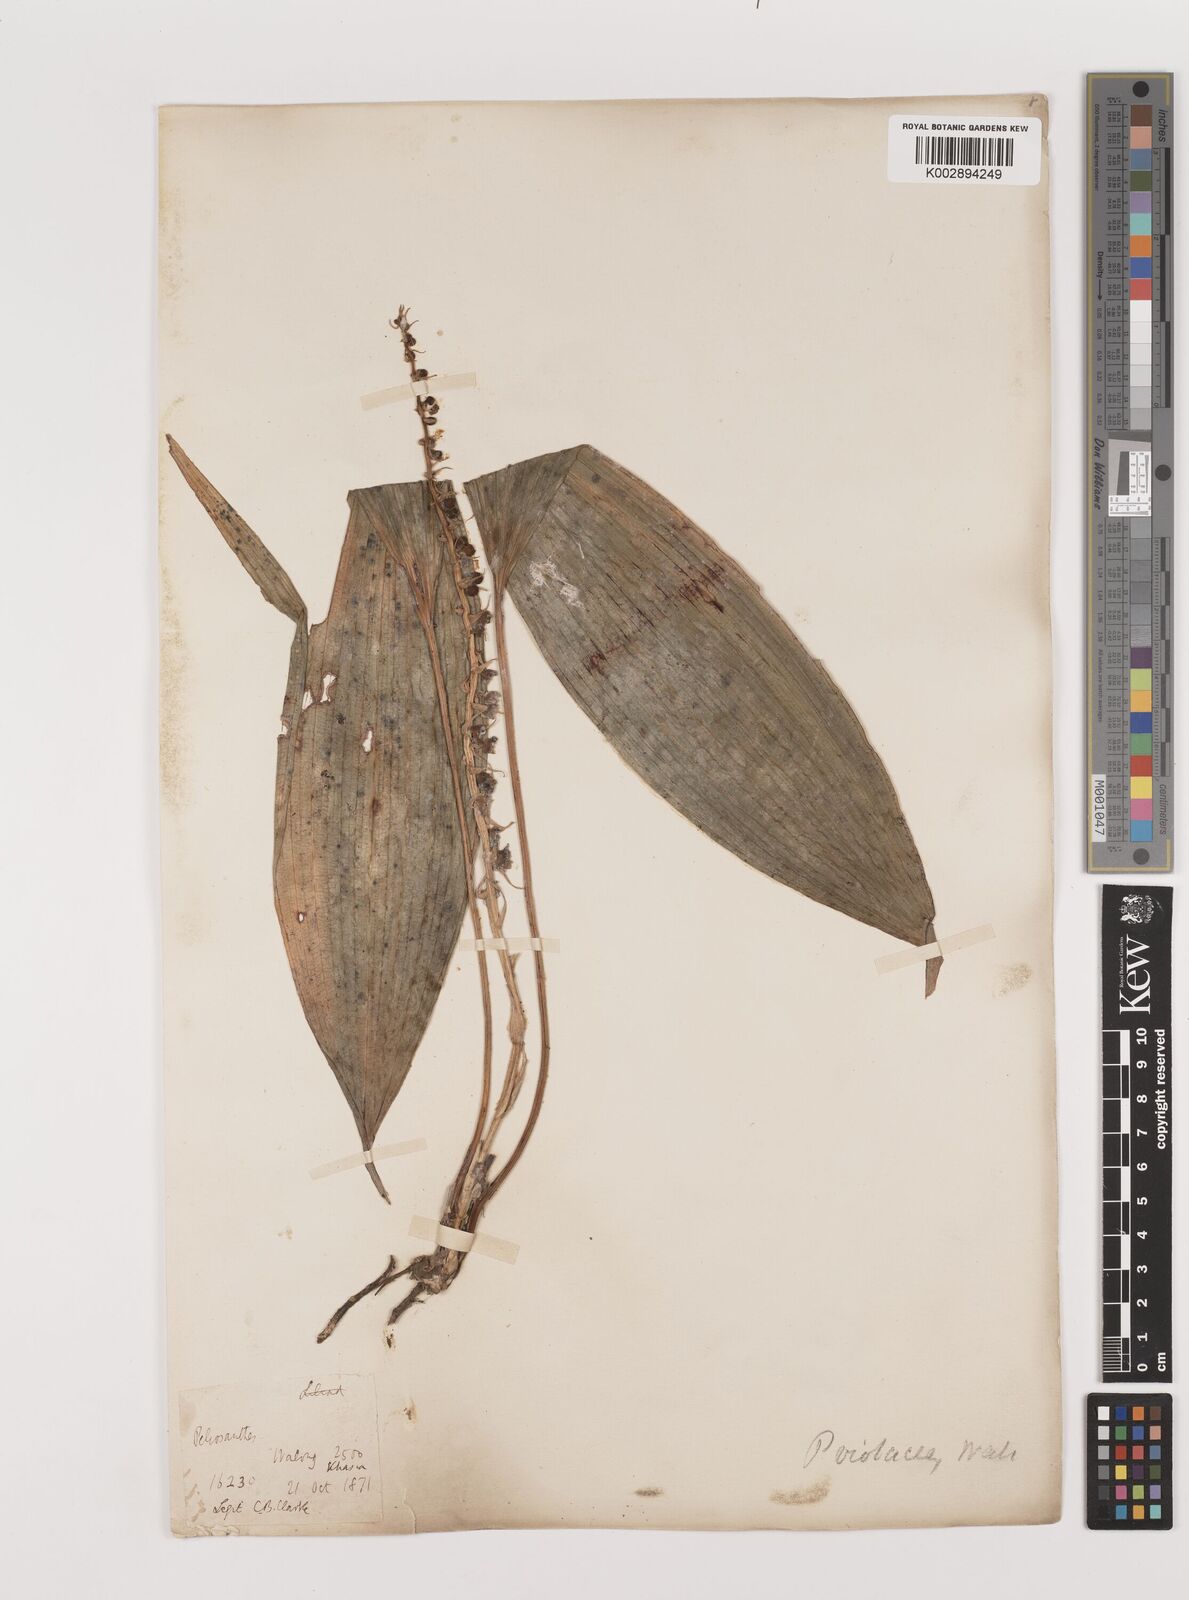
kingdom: Plantae
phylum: Tracheophyta
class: Liliopsida
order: Asparagales
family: Asparagaceae
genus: Peliosanthes
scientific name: Peliosanthes teta
